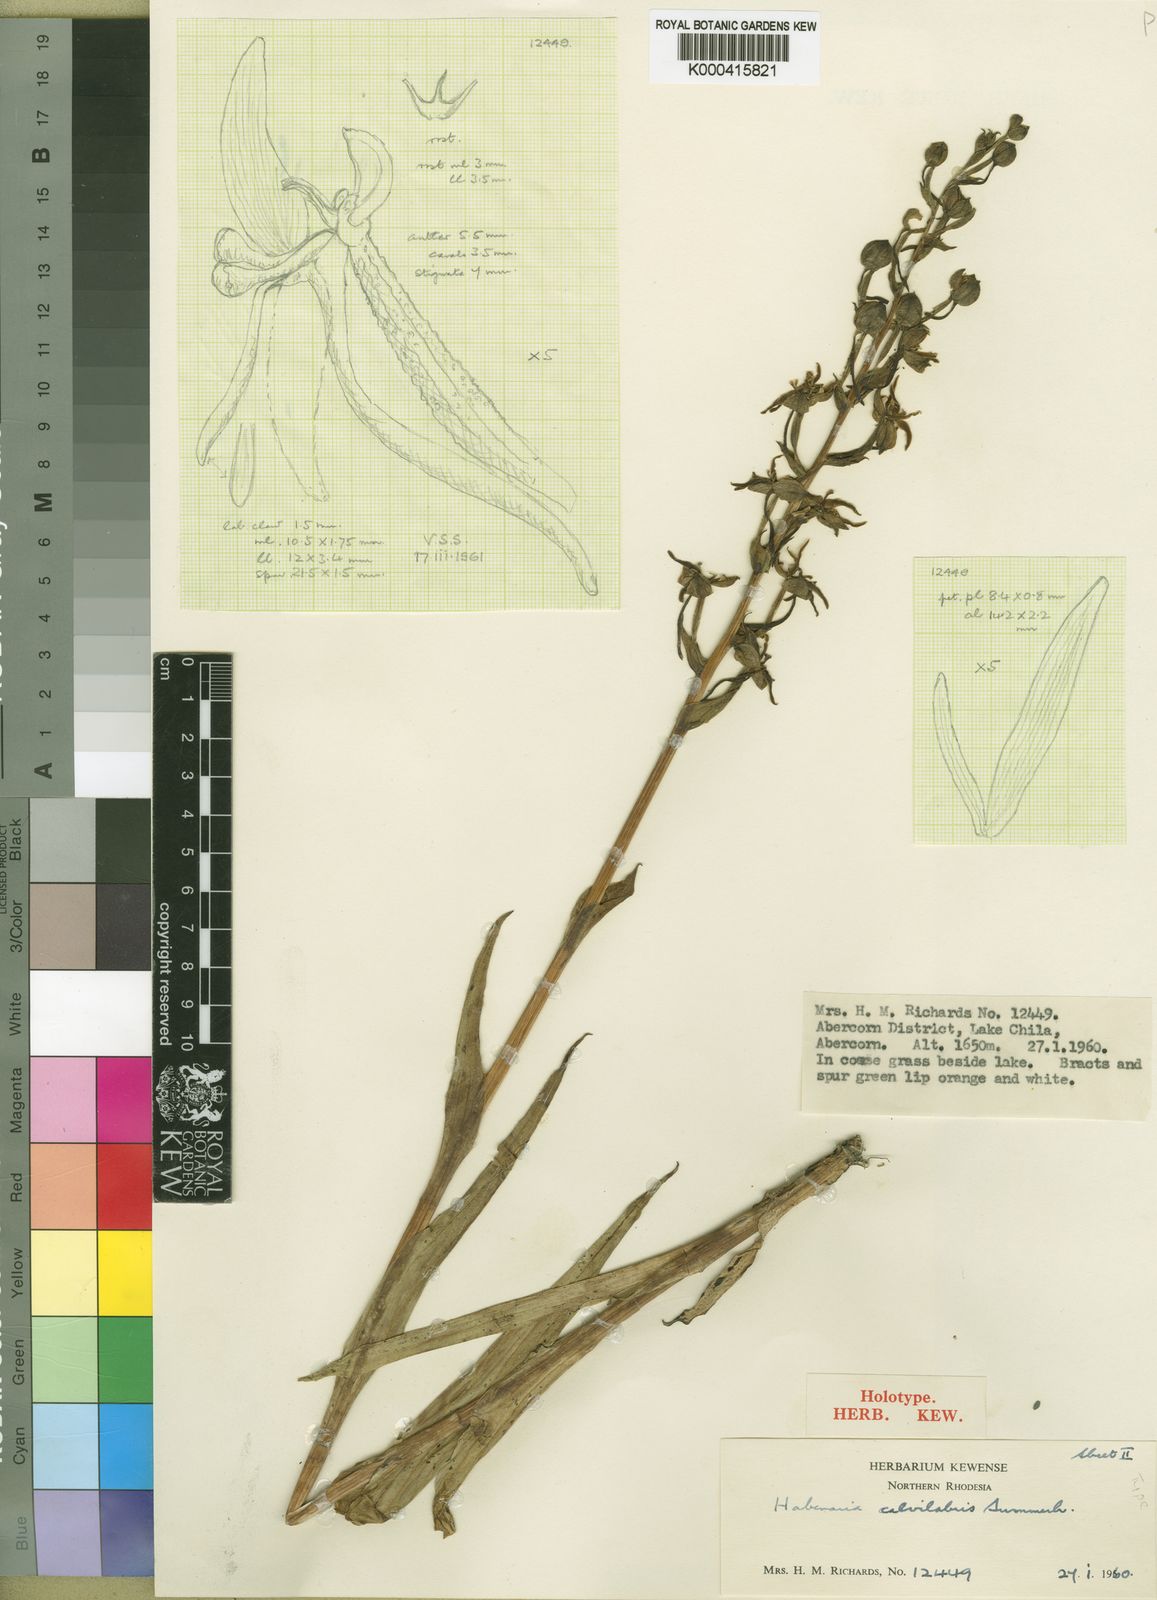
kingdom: Plantae
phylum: Tracheophyta
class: Liliopsida
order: Asparagales
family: Orchidaceae
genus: Habenaria
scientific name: Habenaria calvilabris
